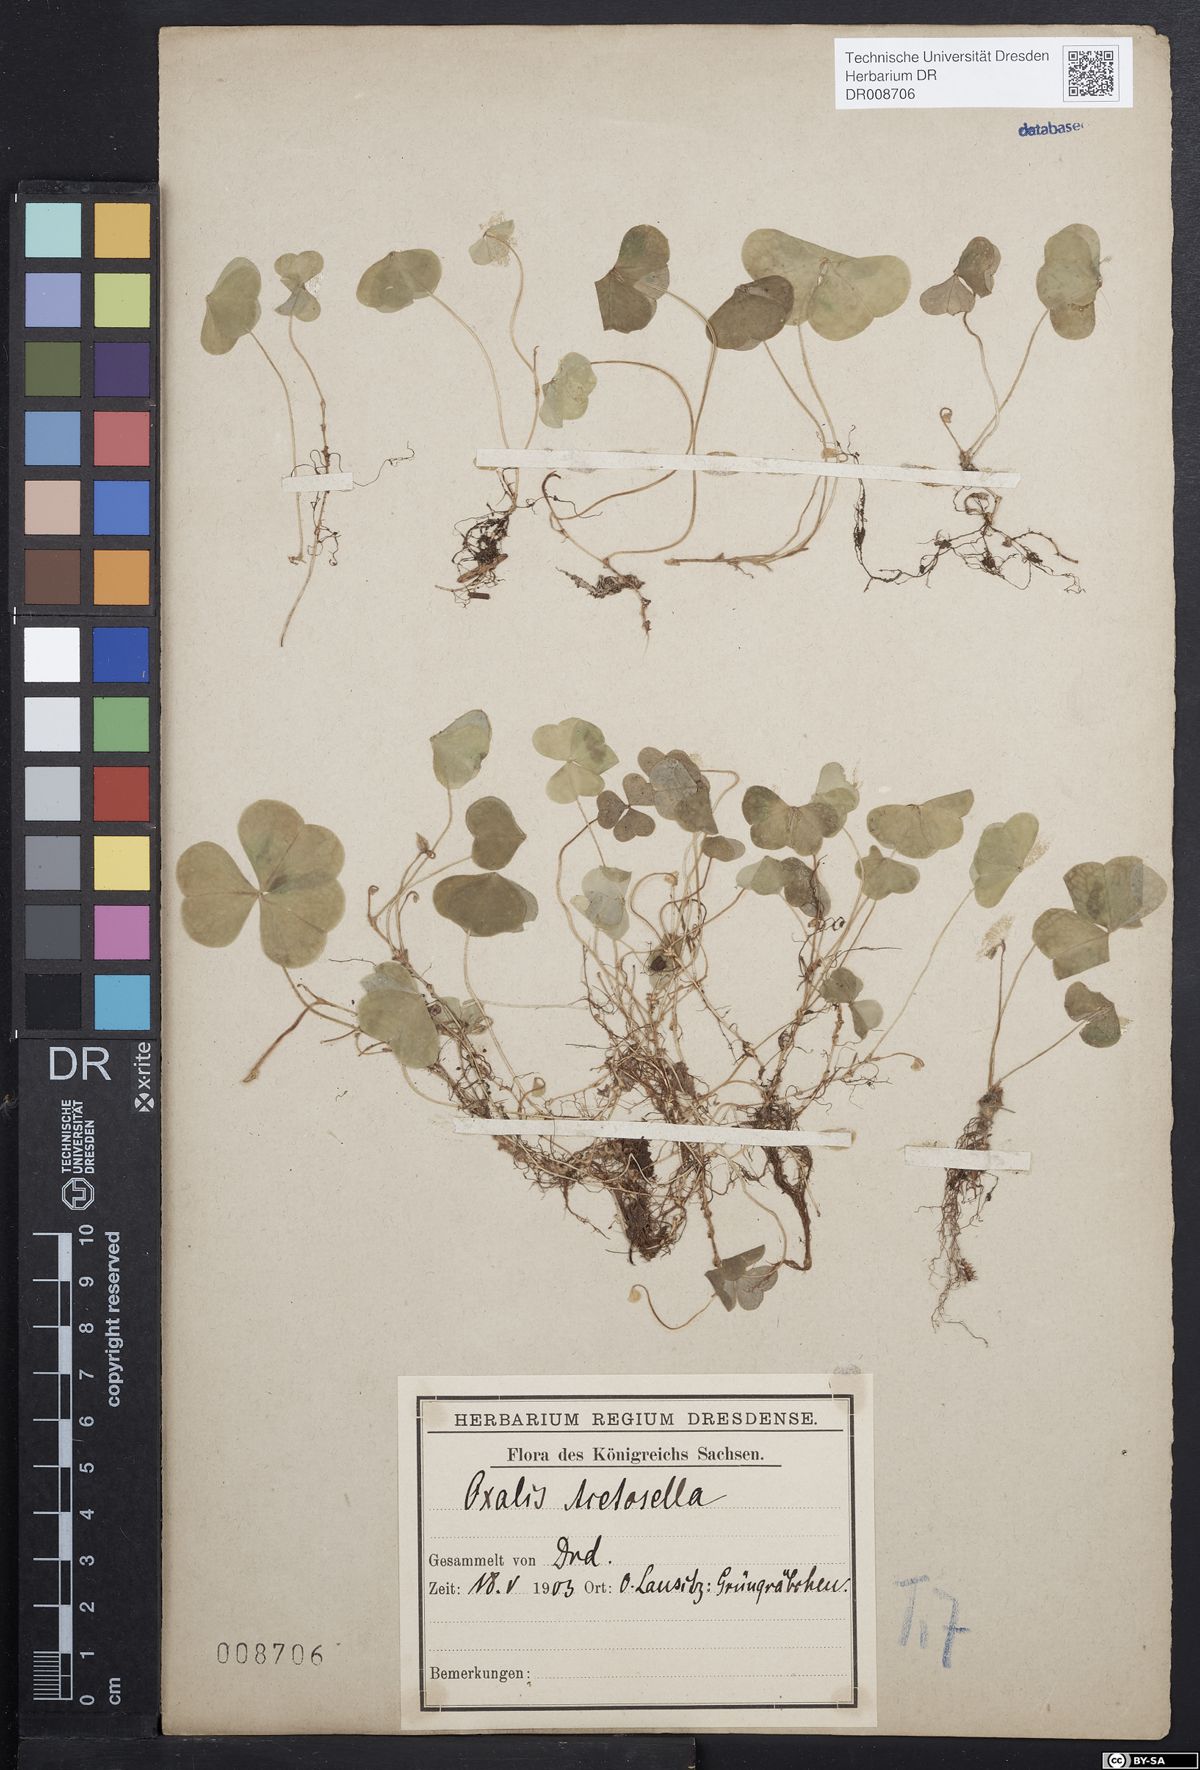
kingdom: Plantae
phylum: Tracheophyta
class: Magnoliopsida
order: Oxalidales
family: Oxalidaceae
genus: Oxalis
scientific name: Oxalis acetosella
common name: Wood-sorrel
